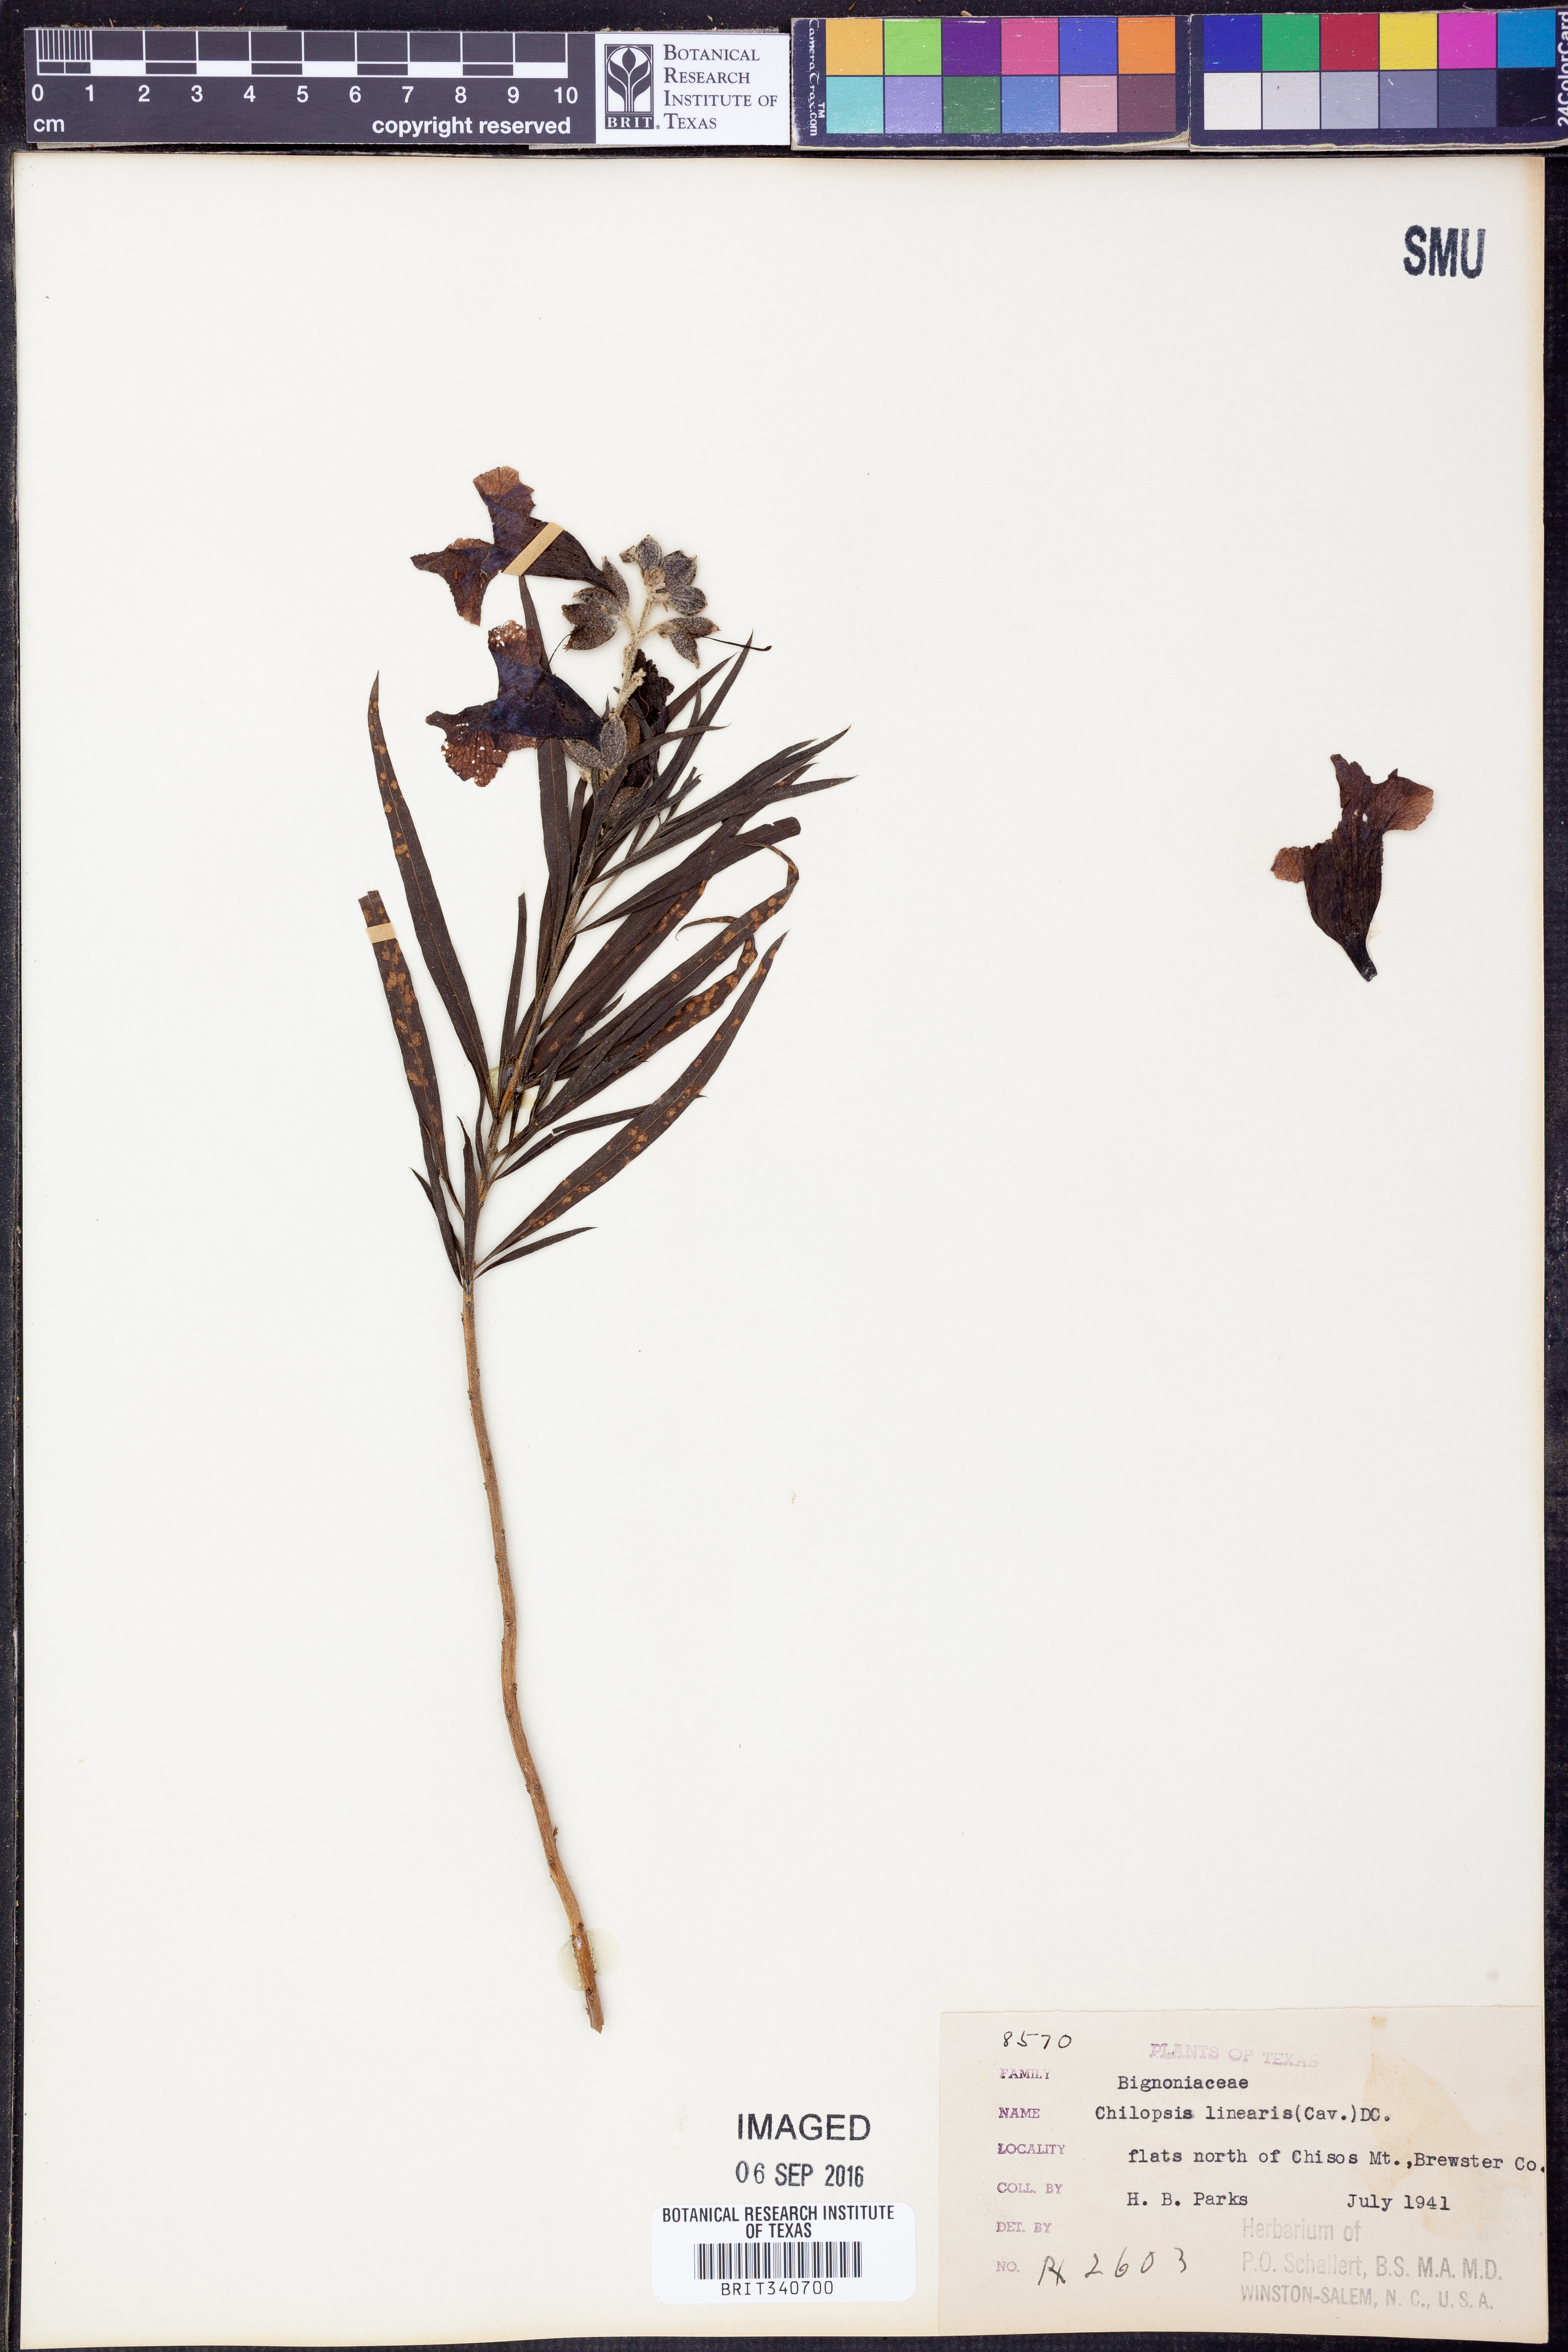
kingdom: Plantae
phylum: Tracheophyta
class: Magnoliopsida
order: Lamiales
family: Bignoniaceae
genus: Chilopsis
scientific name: Chilopsis linearis
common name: Desert-willow
